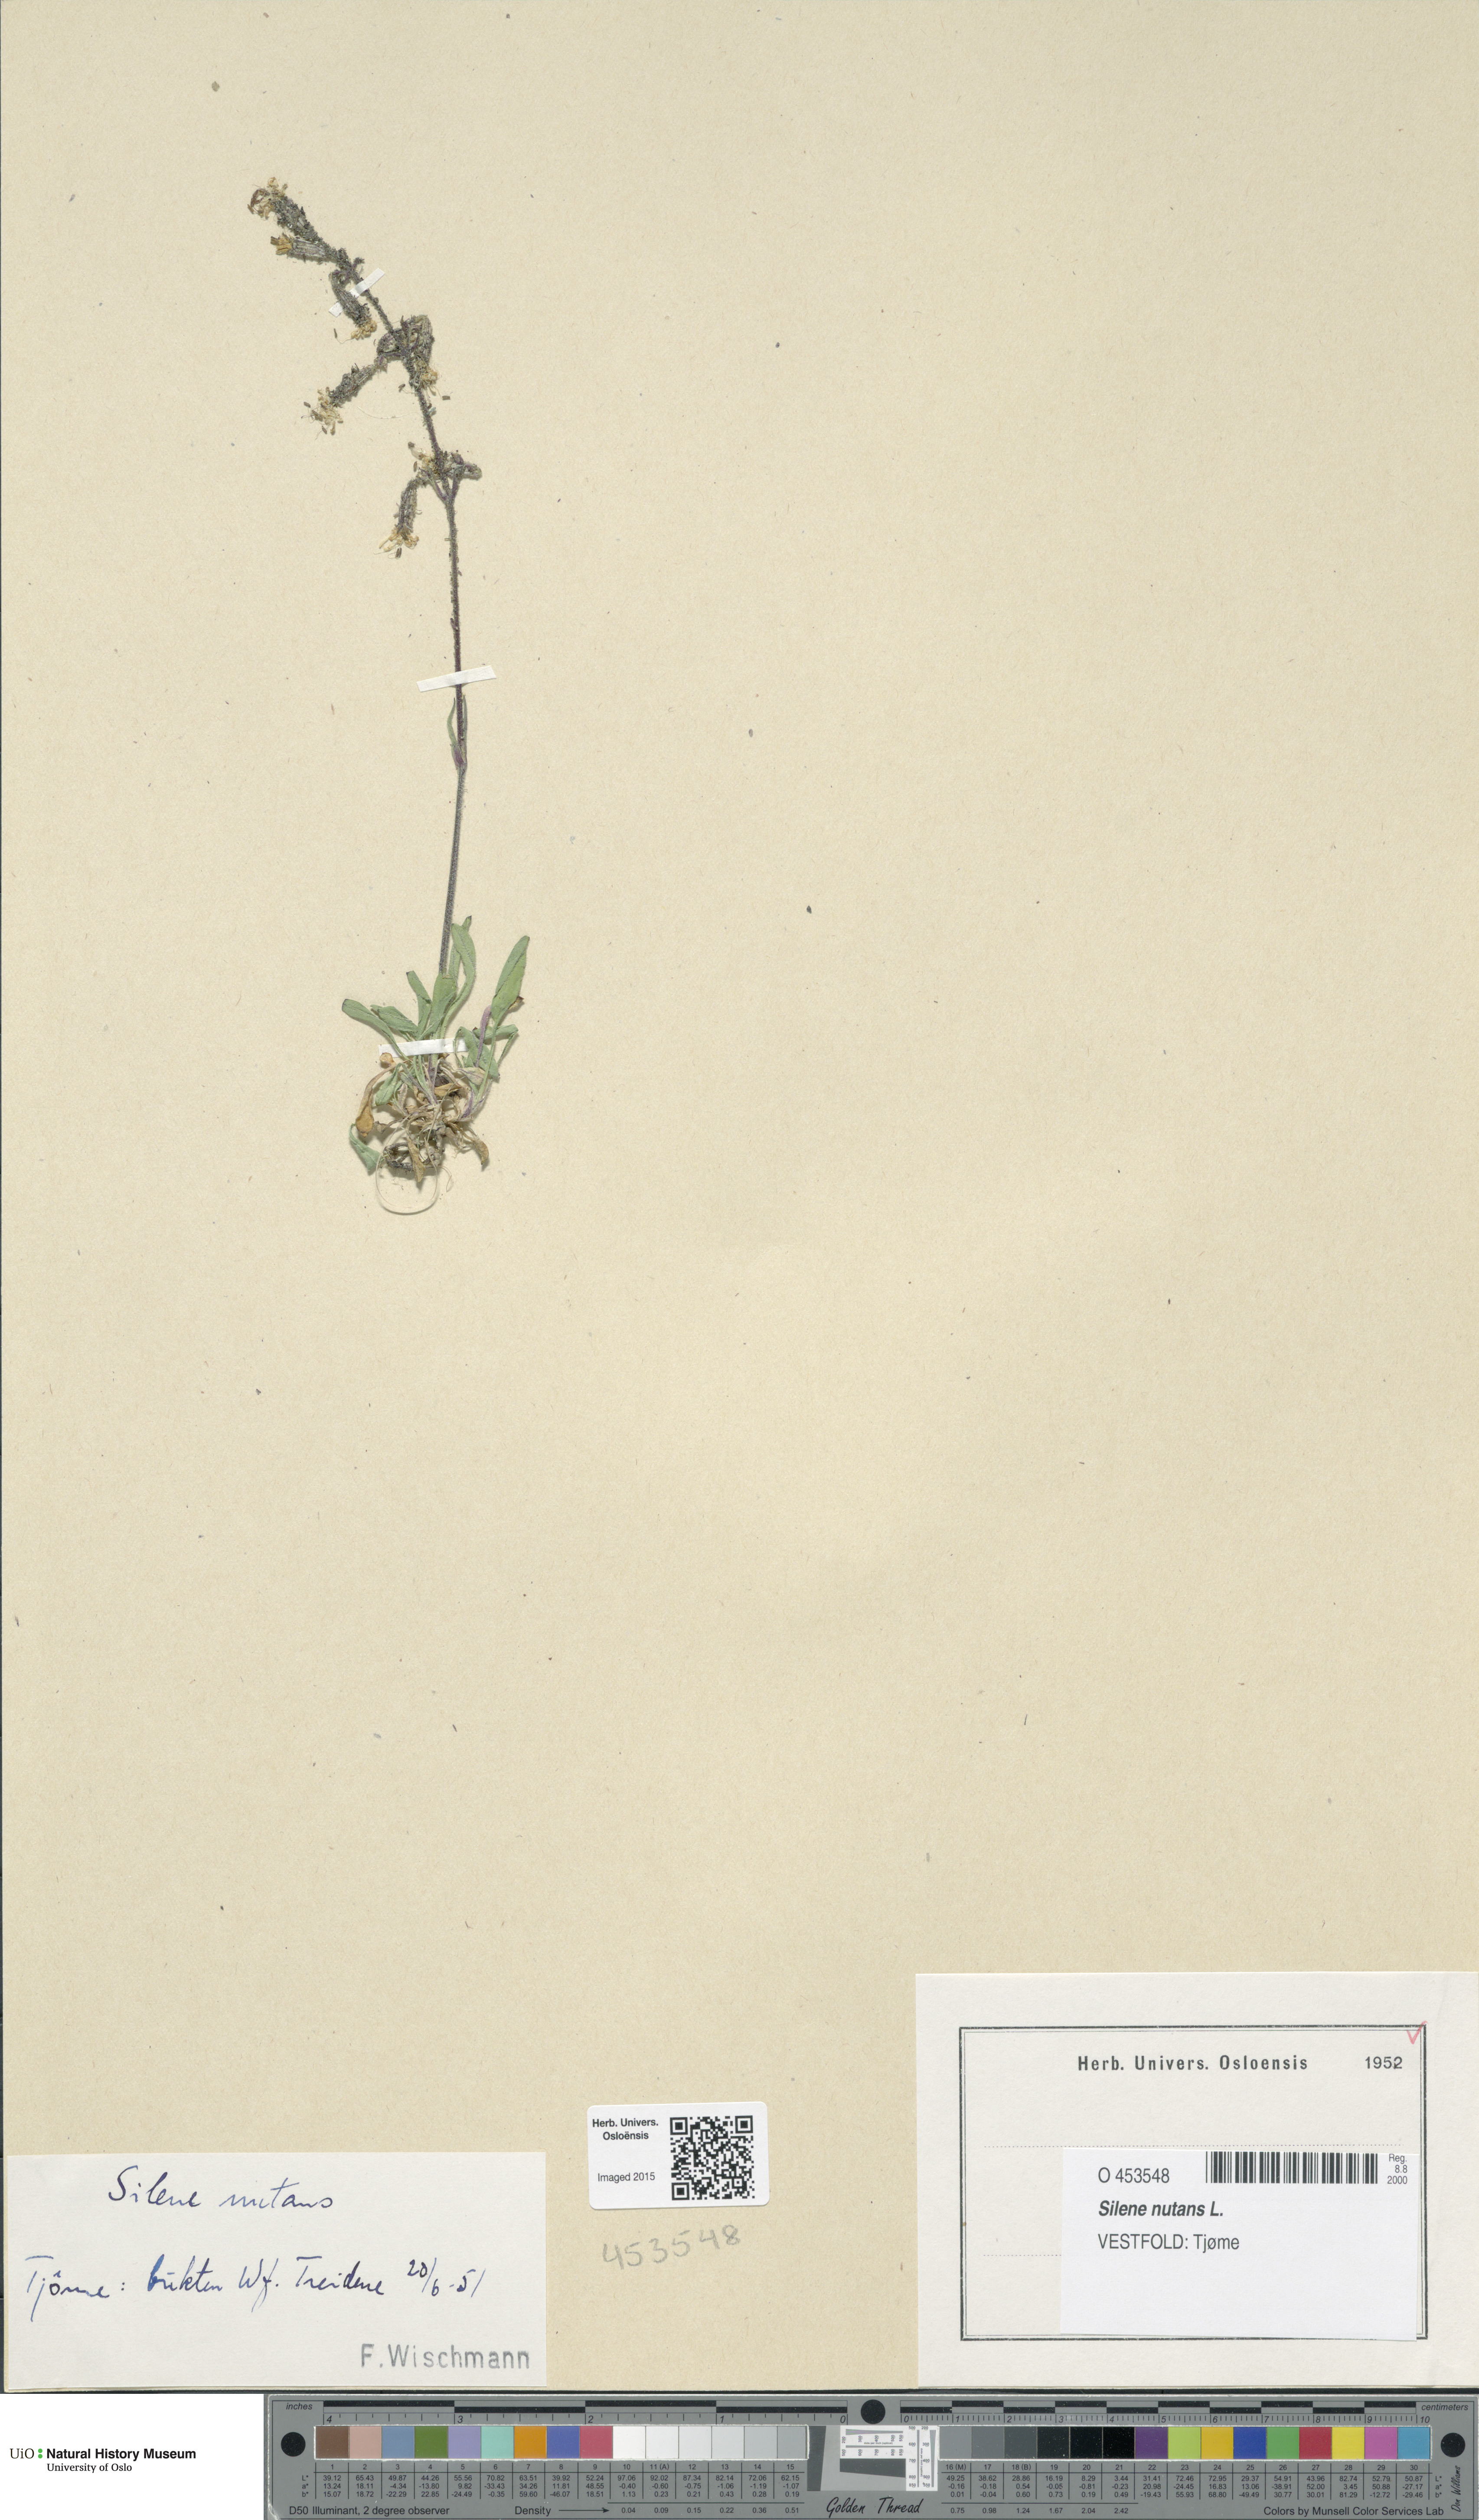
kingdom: Plantae
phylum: Tracheophyta
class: Magnoliopsida
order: Caryophyllales
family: Caryophyllaceae
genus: Silene
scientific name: Silene nutans
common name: Nottingham catchfly
